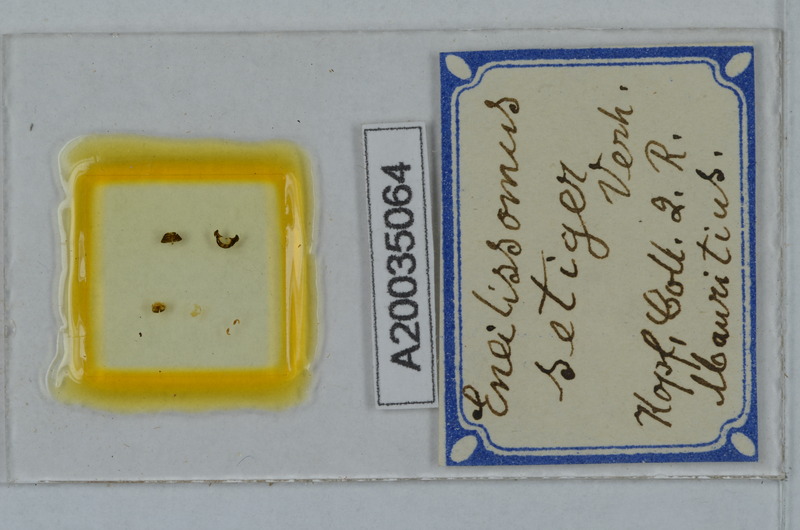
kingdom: Animalia
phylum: Arthropoda
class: Diplopoda
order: Polydesmida
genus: Eneillissomus
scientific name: Eneillissomus setiger
